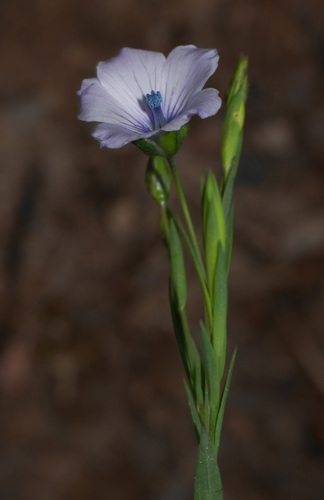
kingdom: Plantae
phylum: Tracheophyta
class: Magnoliopsida
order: Malpighiales
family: Linaceae
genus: Linum
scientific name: Linum bienne
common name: Pale flax
